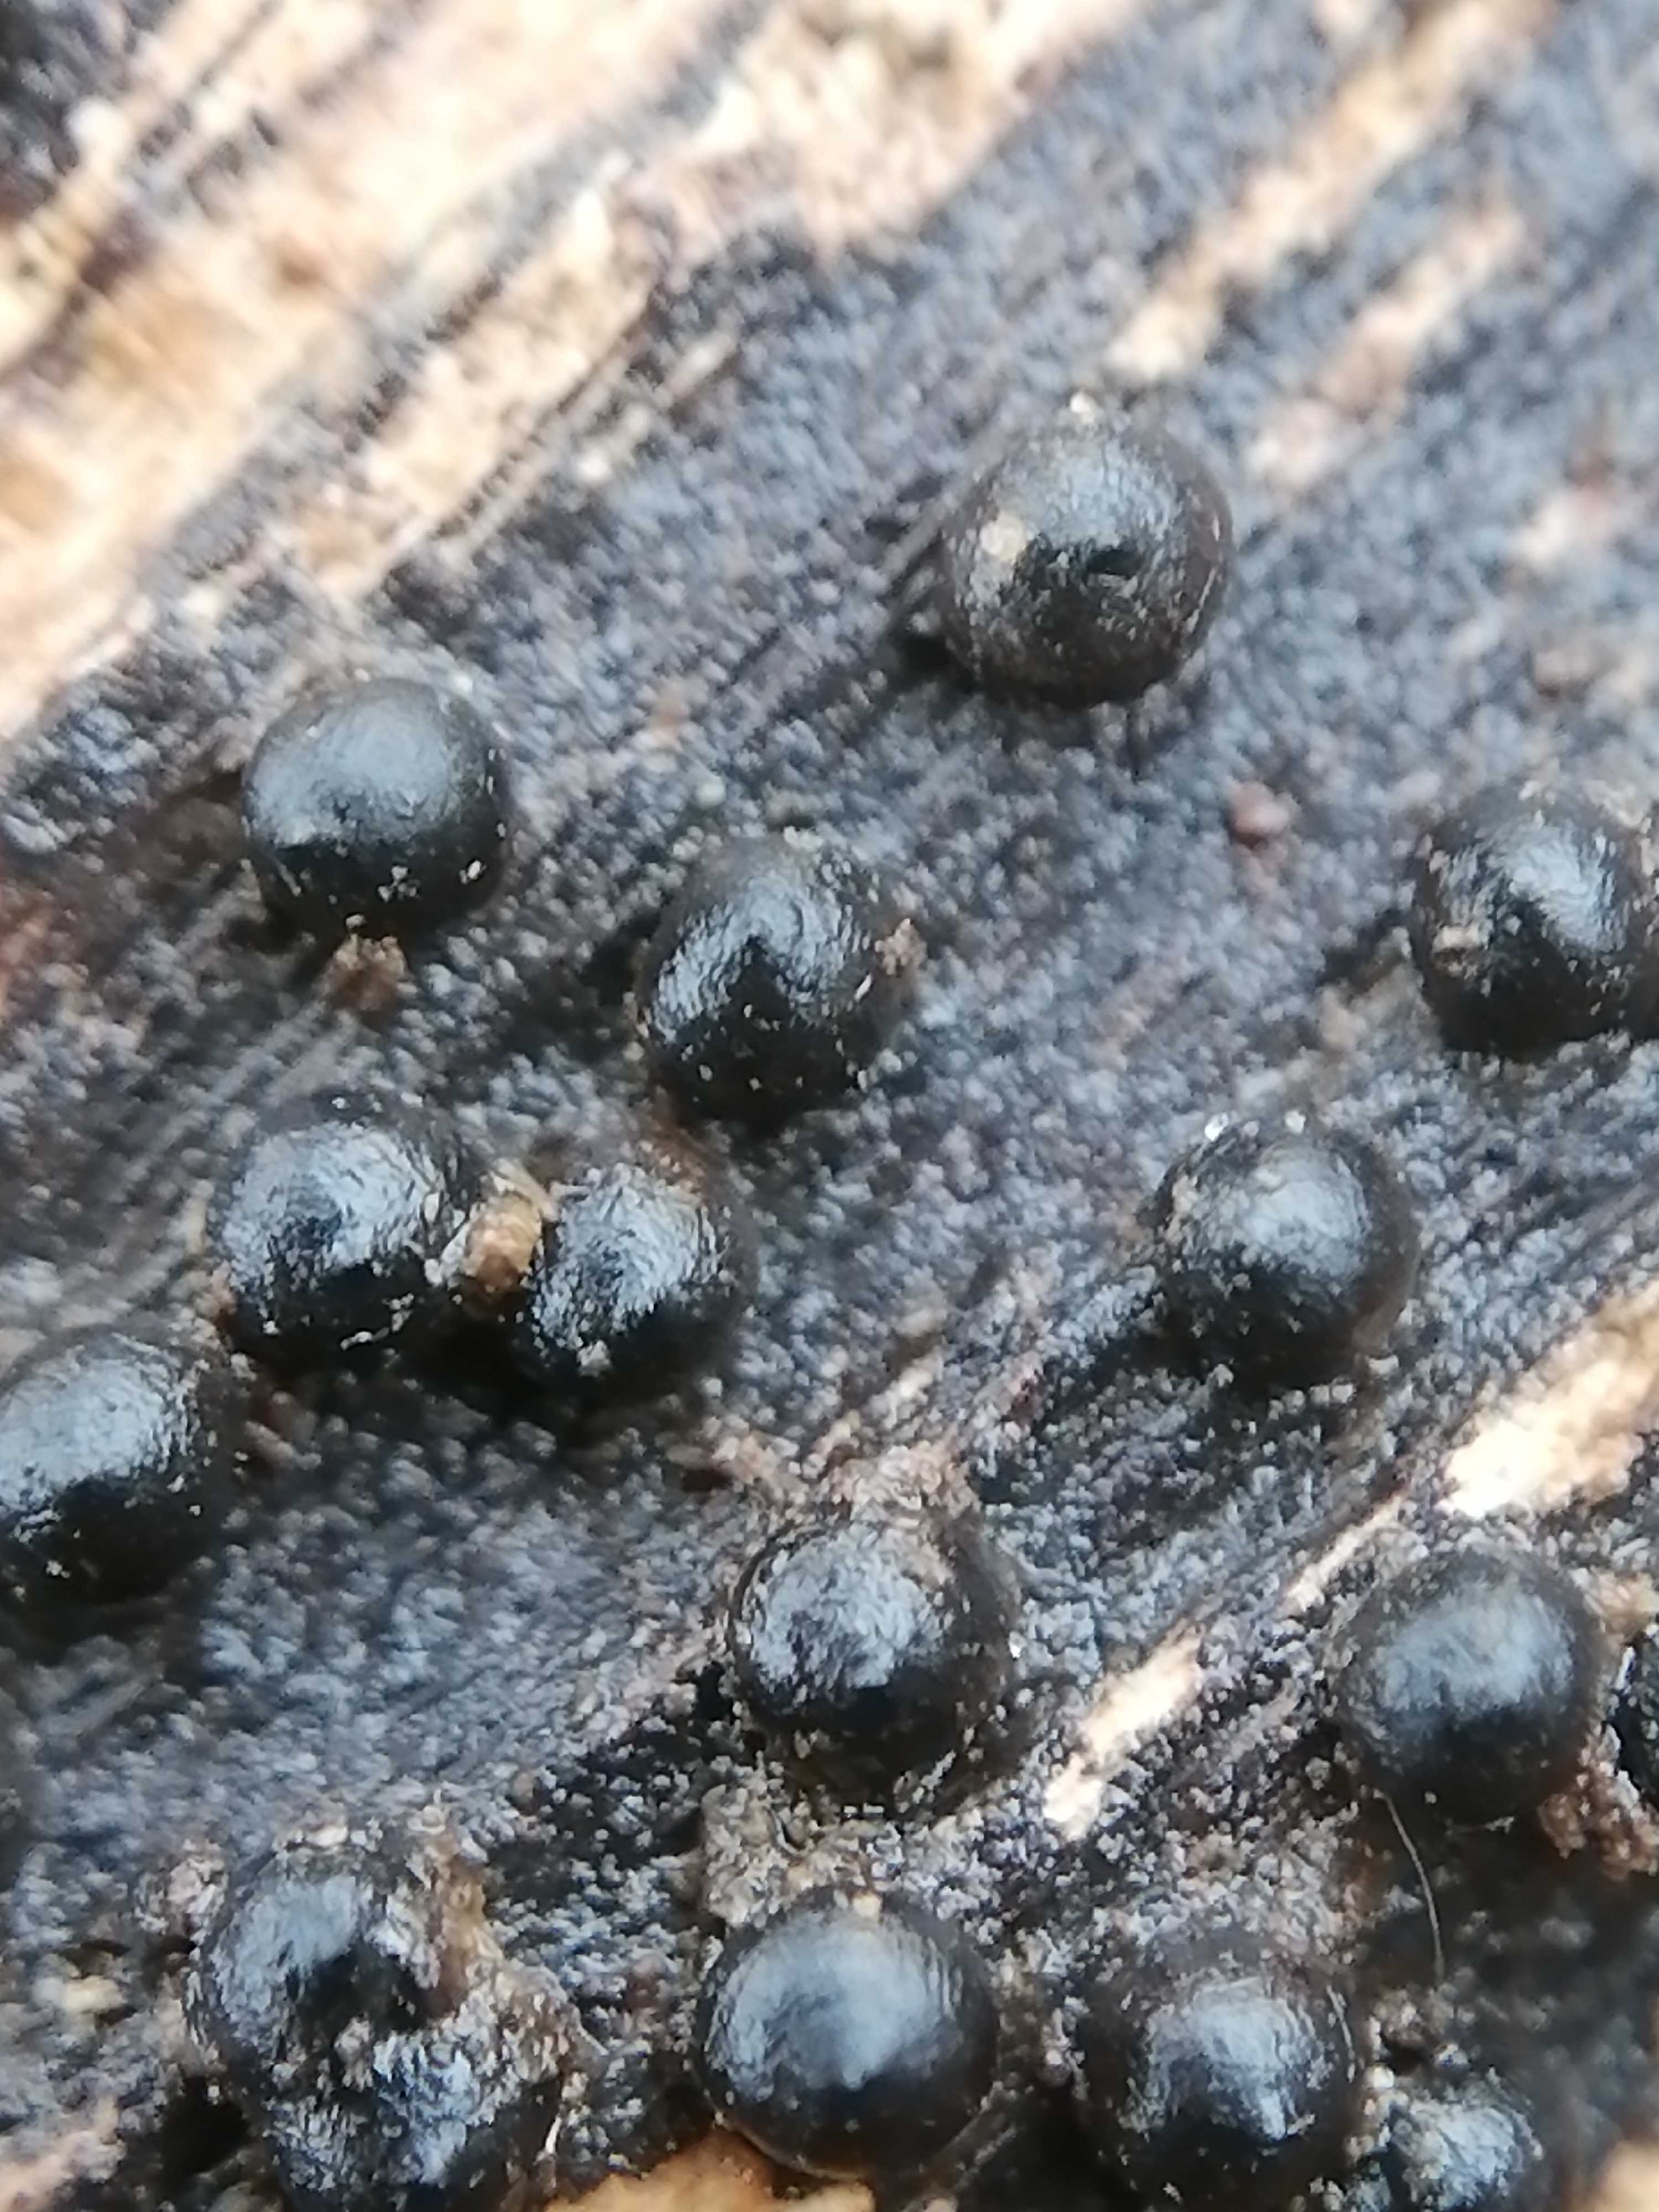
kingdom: Fungi
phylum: Ascomycota
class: Sordariomycetes
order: Xylariales
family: Xylariaceae
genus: Rosellinia
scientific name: Rosellinia
